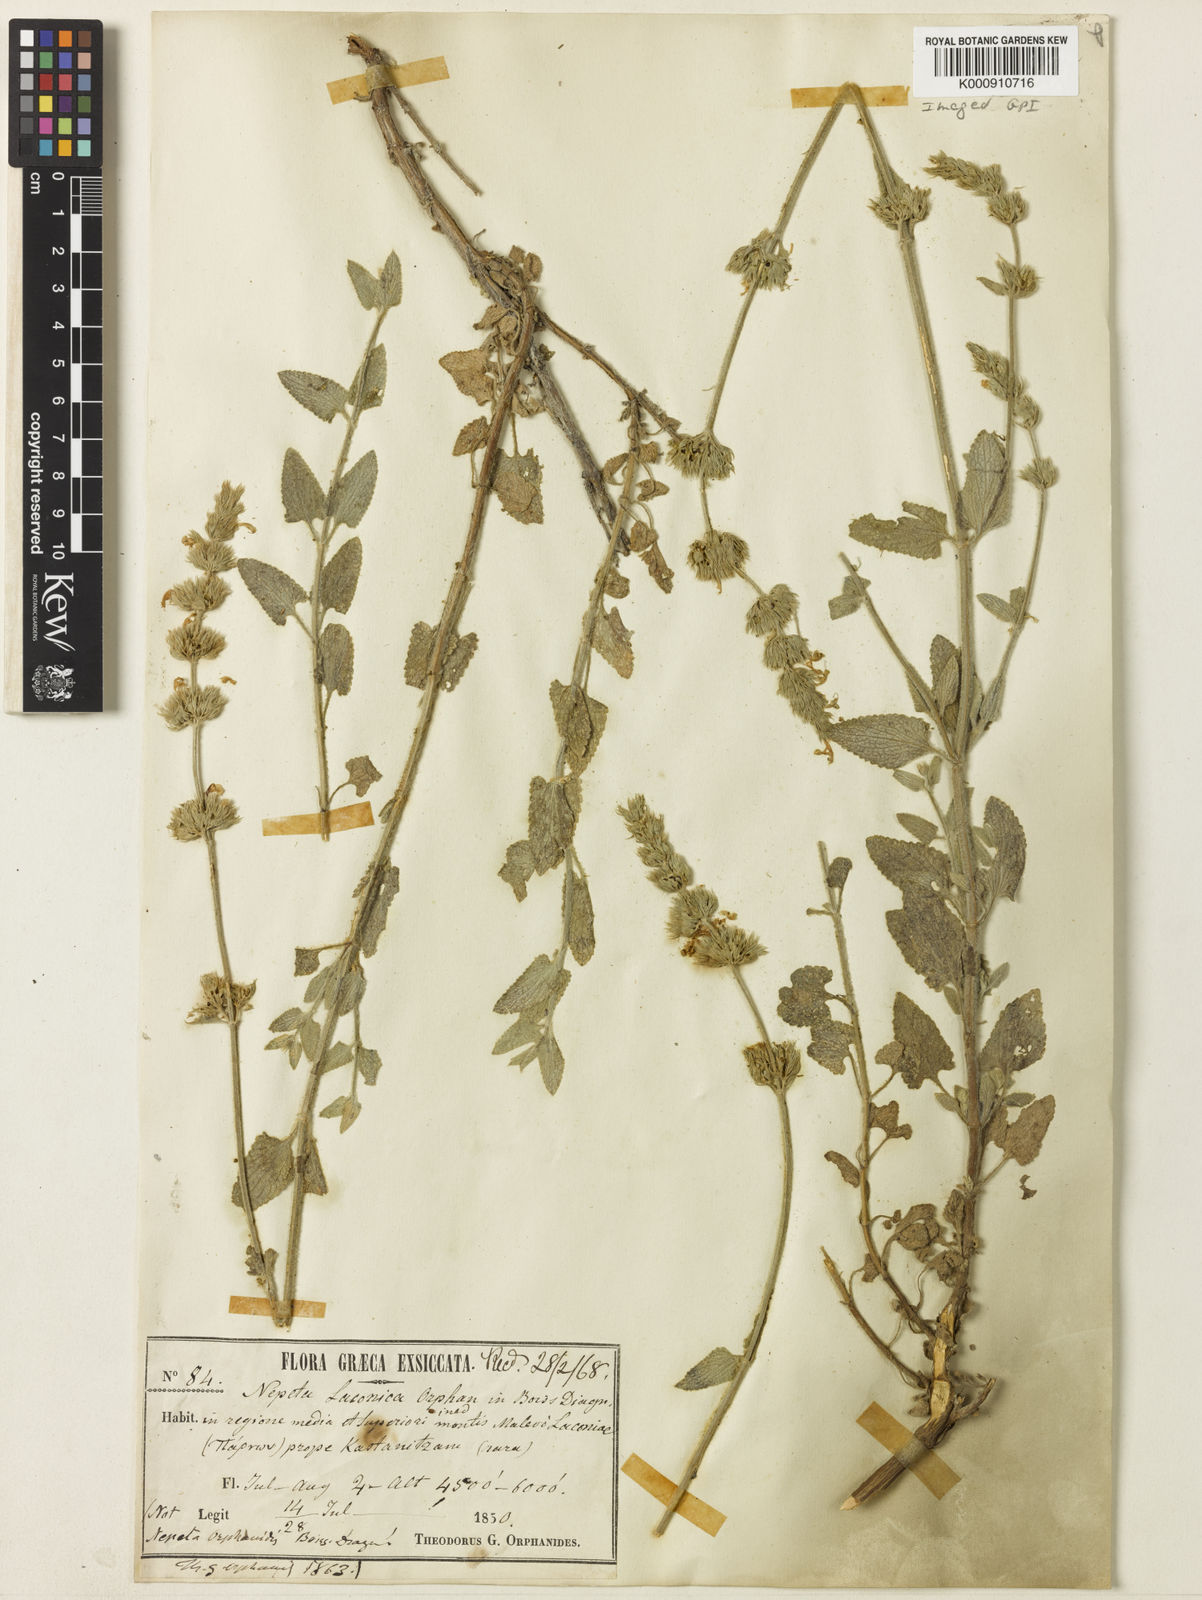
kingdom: Plantae
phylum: Tracheophyta
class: Magnoliopsida
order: Lamiales
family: Lamiaceae
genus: Nepeta
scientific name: Nepeta orphanidea
